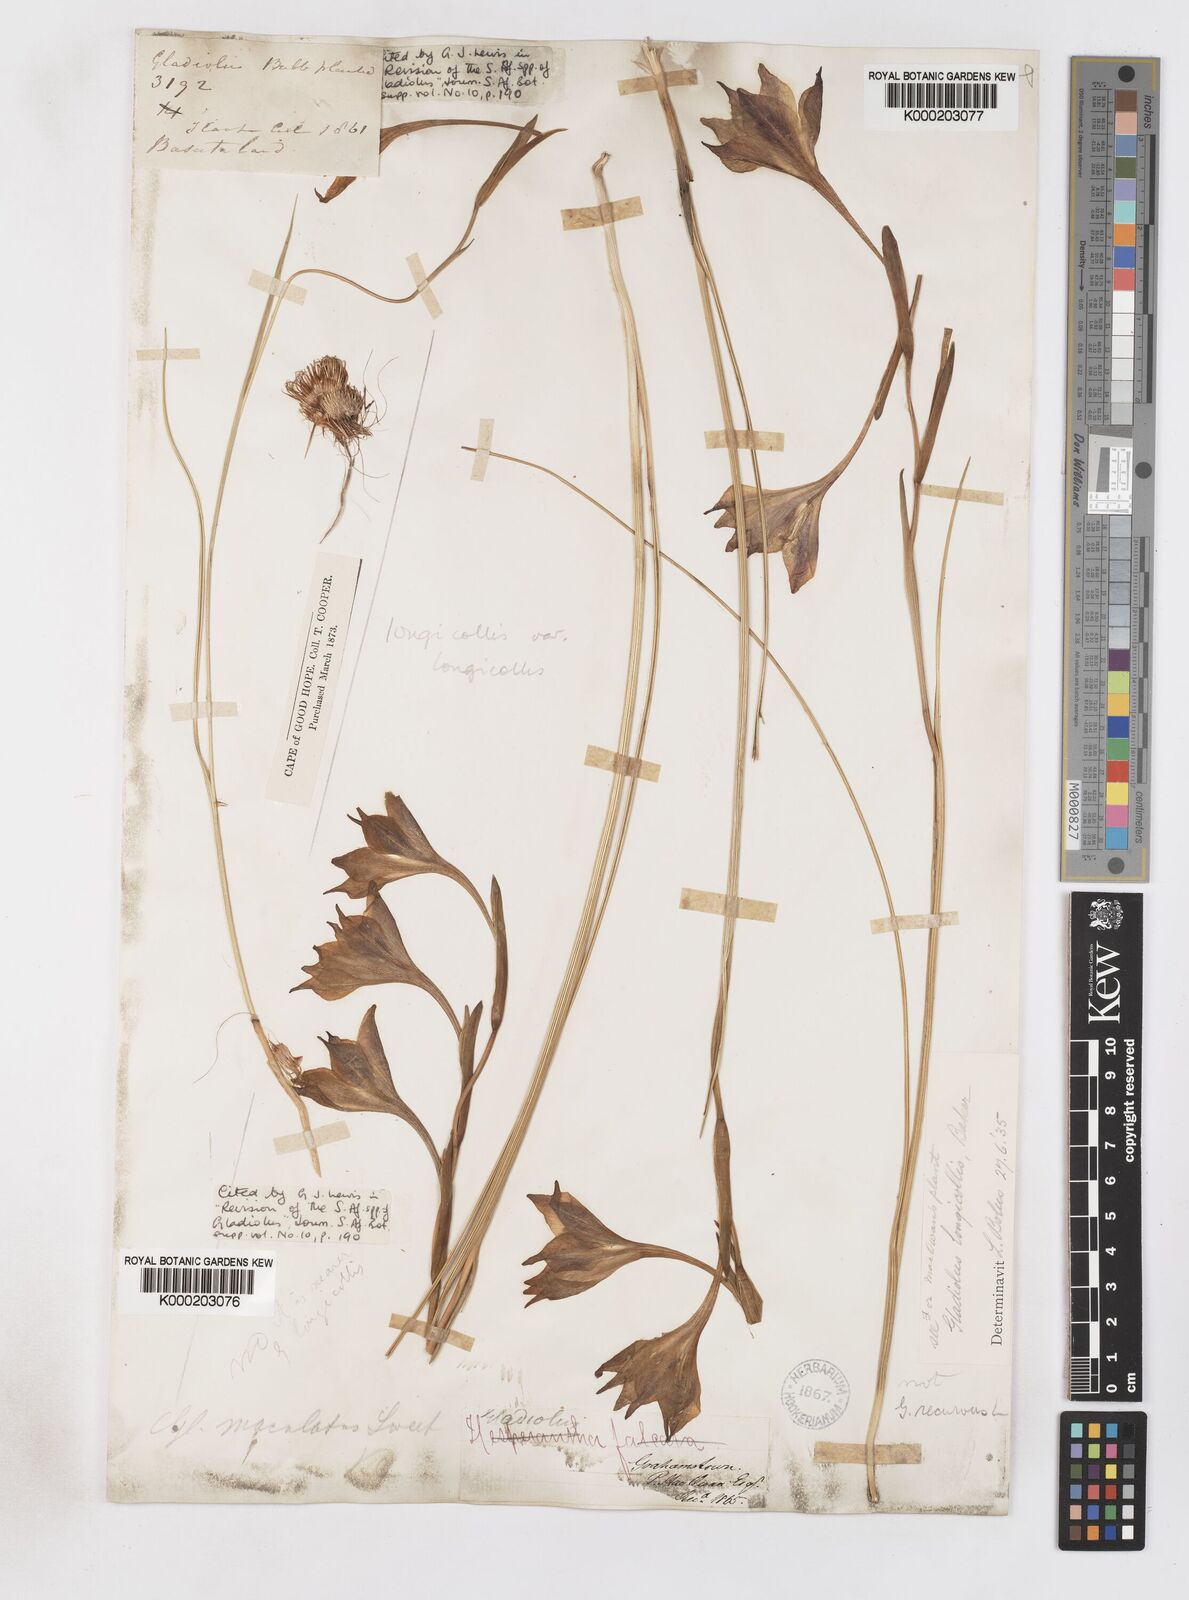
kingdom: Plantae
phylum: Tracheophyta
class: Liliopsida
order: Asparagales
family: Iridaceae
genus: Gladiolus
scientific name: Gladiolus longicollis
